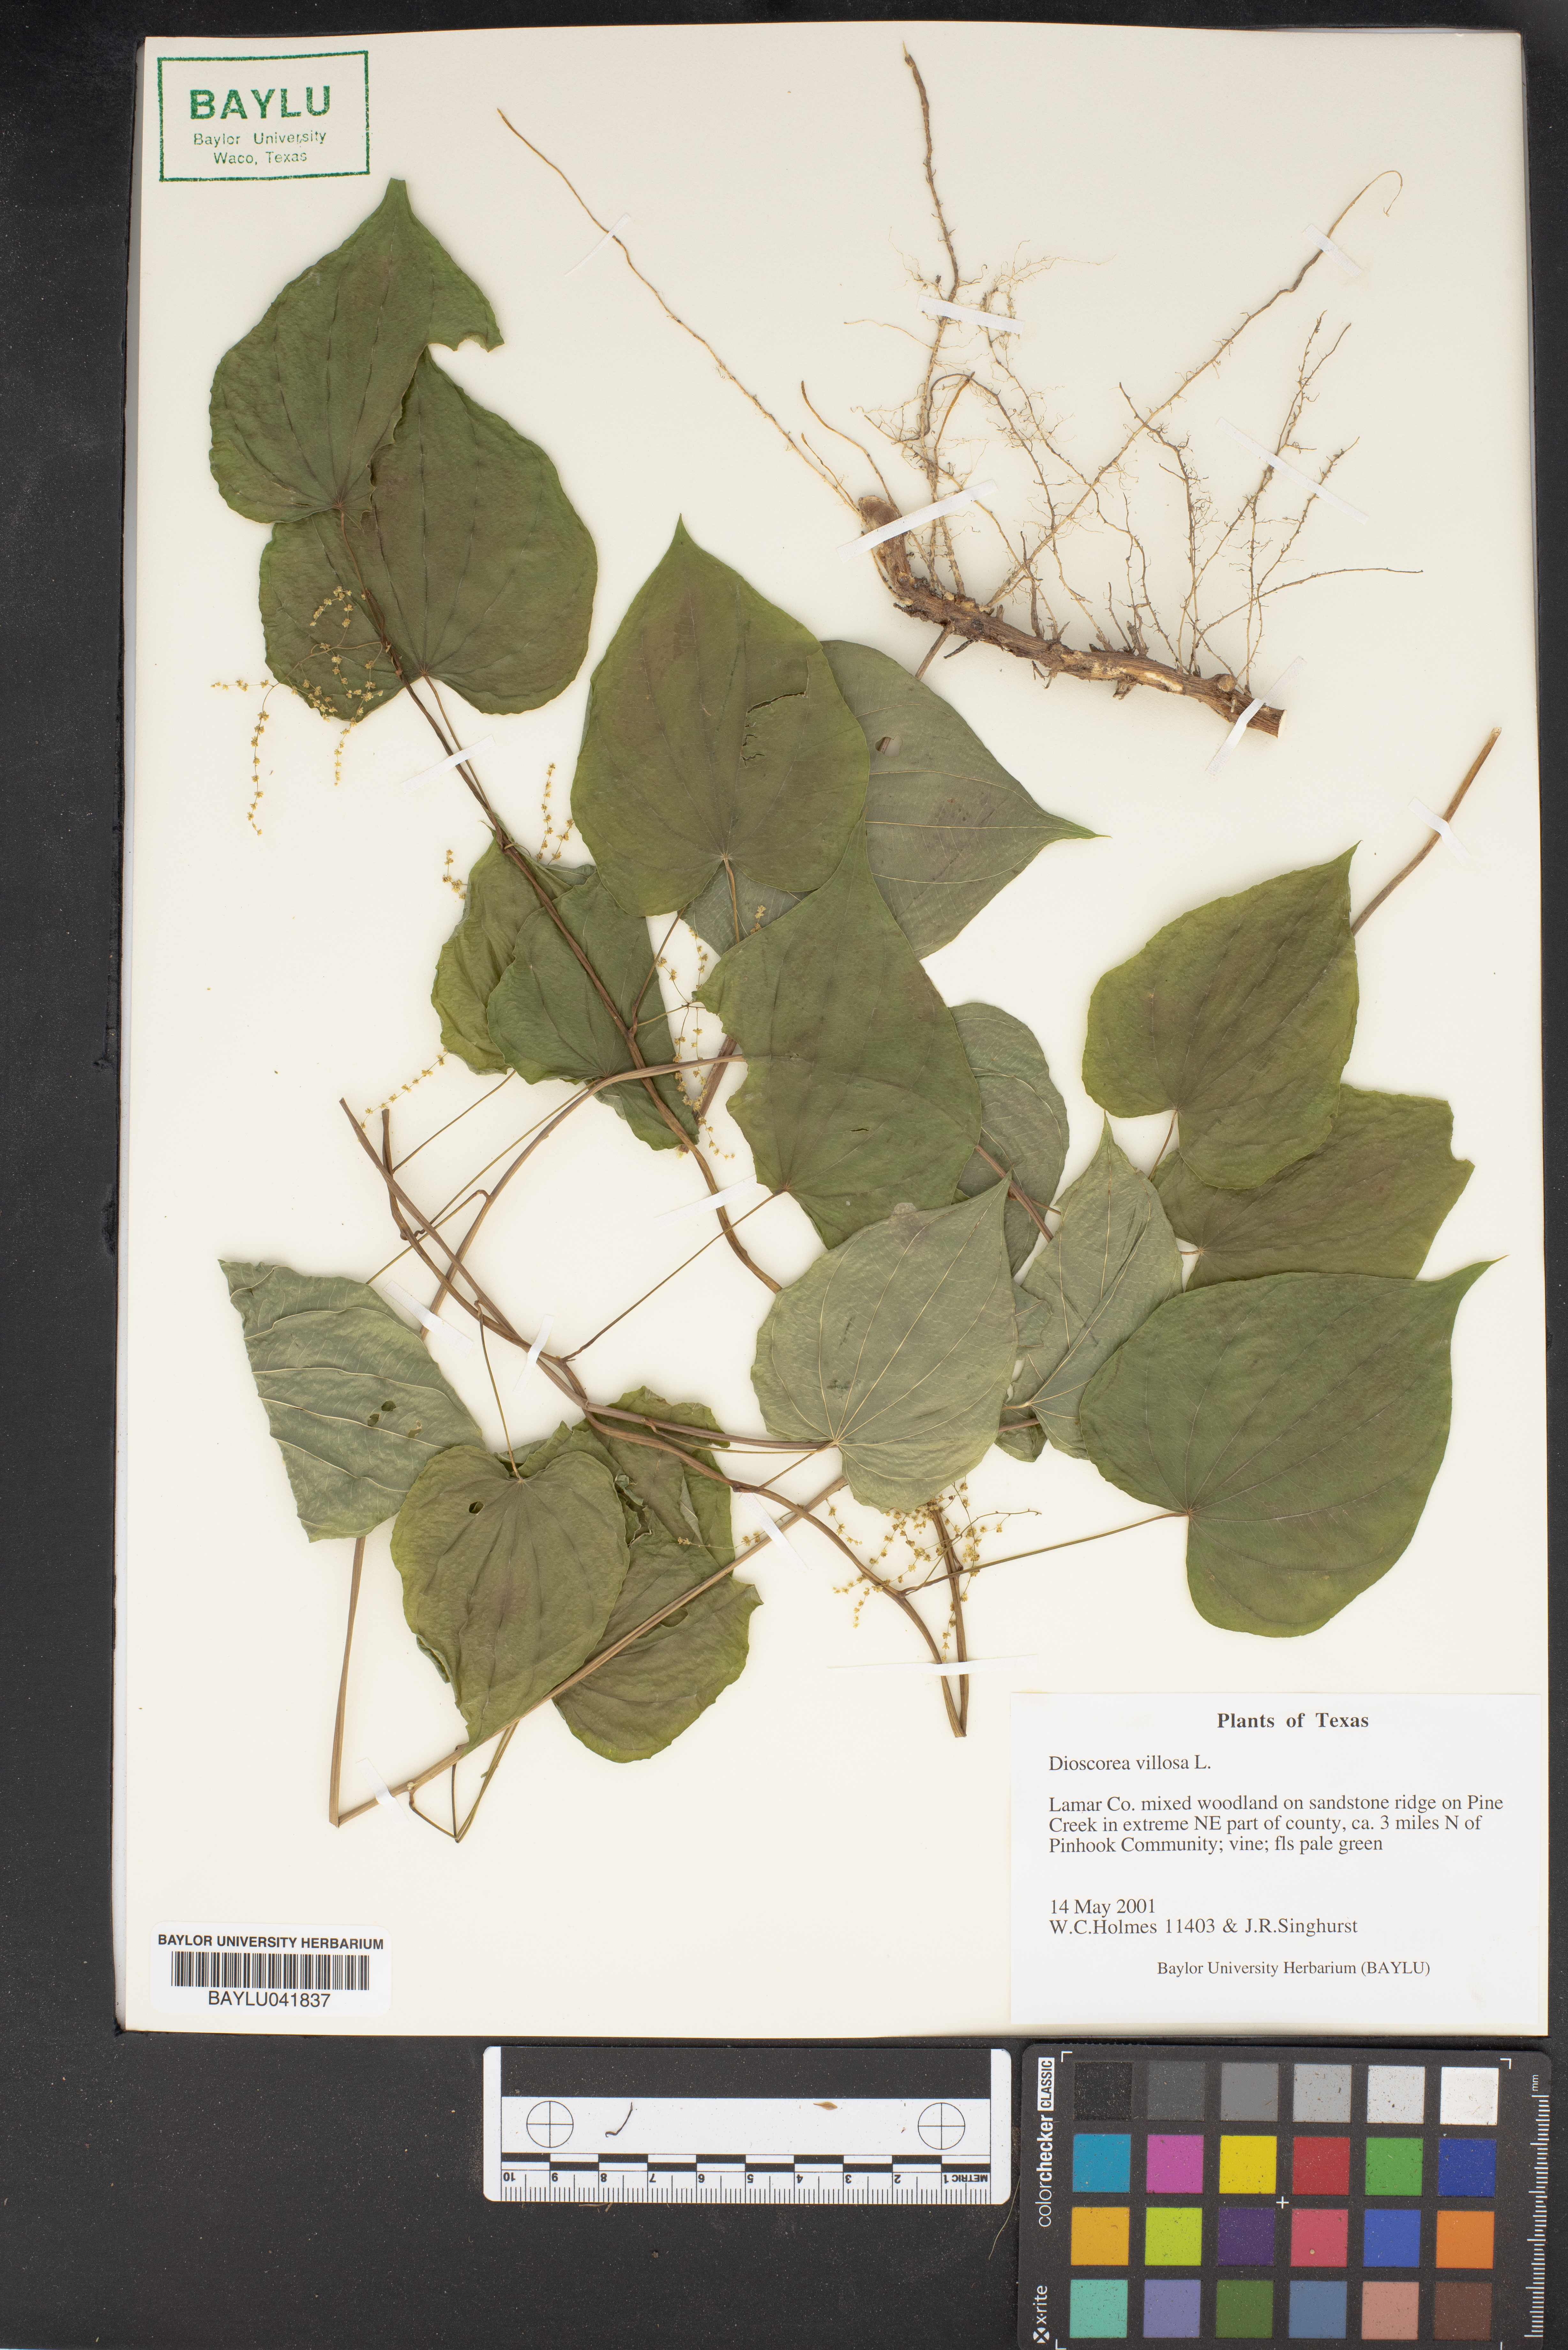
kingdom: Plantae
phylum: Tracheophyta
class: Liliopsida
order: Dioscoreales
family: Dioscoreaceae
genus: Dioscorea
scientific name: Dioscorea villosa
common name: Wild yam
